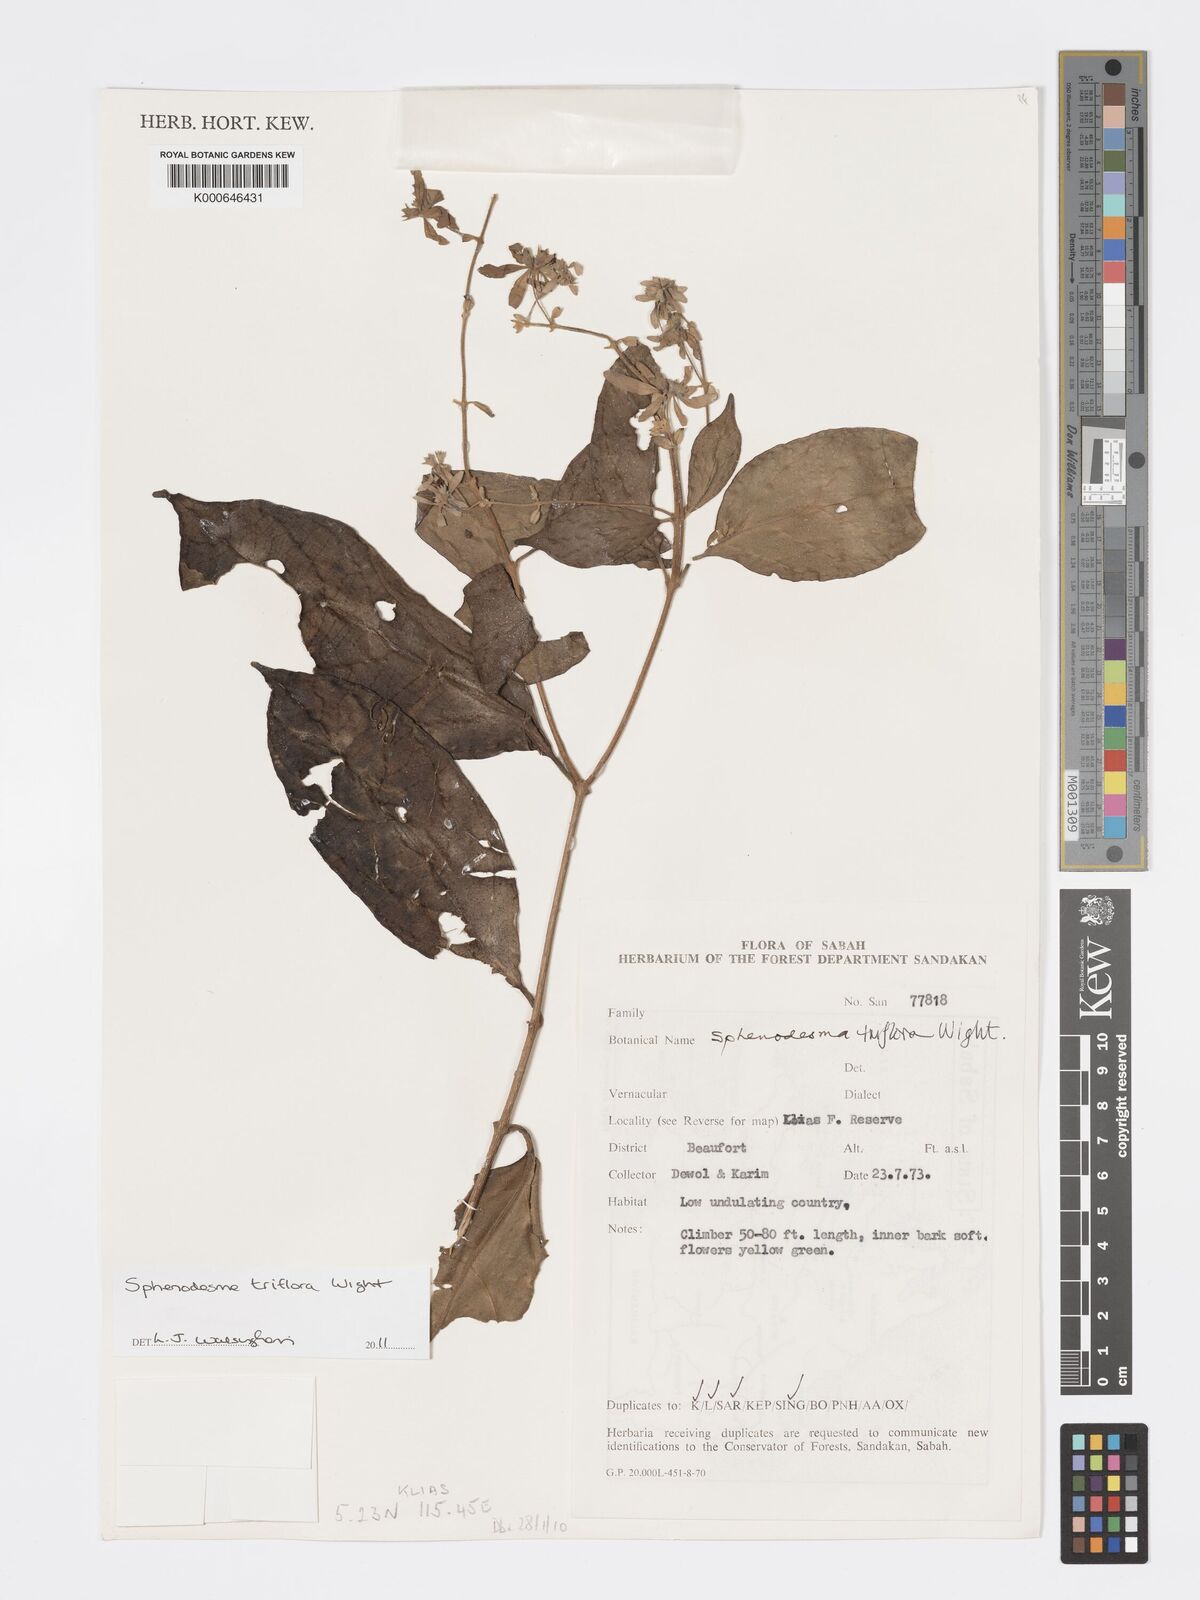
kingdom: Plantae
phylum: Tracheophyta
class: Magnoliopsida
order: Lamiales
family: Lamiaceae
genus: Sphenodesme
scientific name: Sphenodesme triflora
